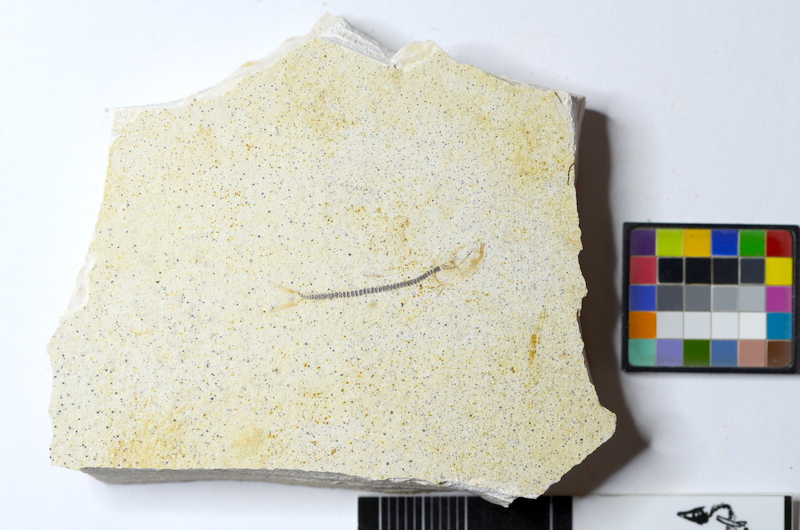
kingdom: Animalia
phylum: Chordata
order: Salmoniformes
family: Orthogonikleithridae
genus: Orthogonikleithrus
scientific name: Orthogonikleithrus hoelli
